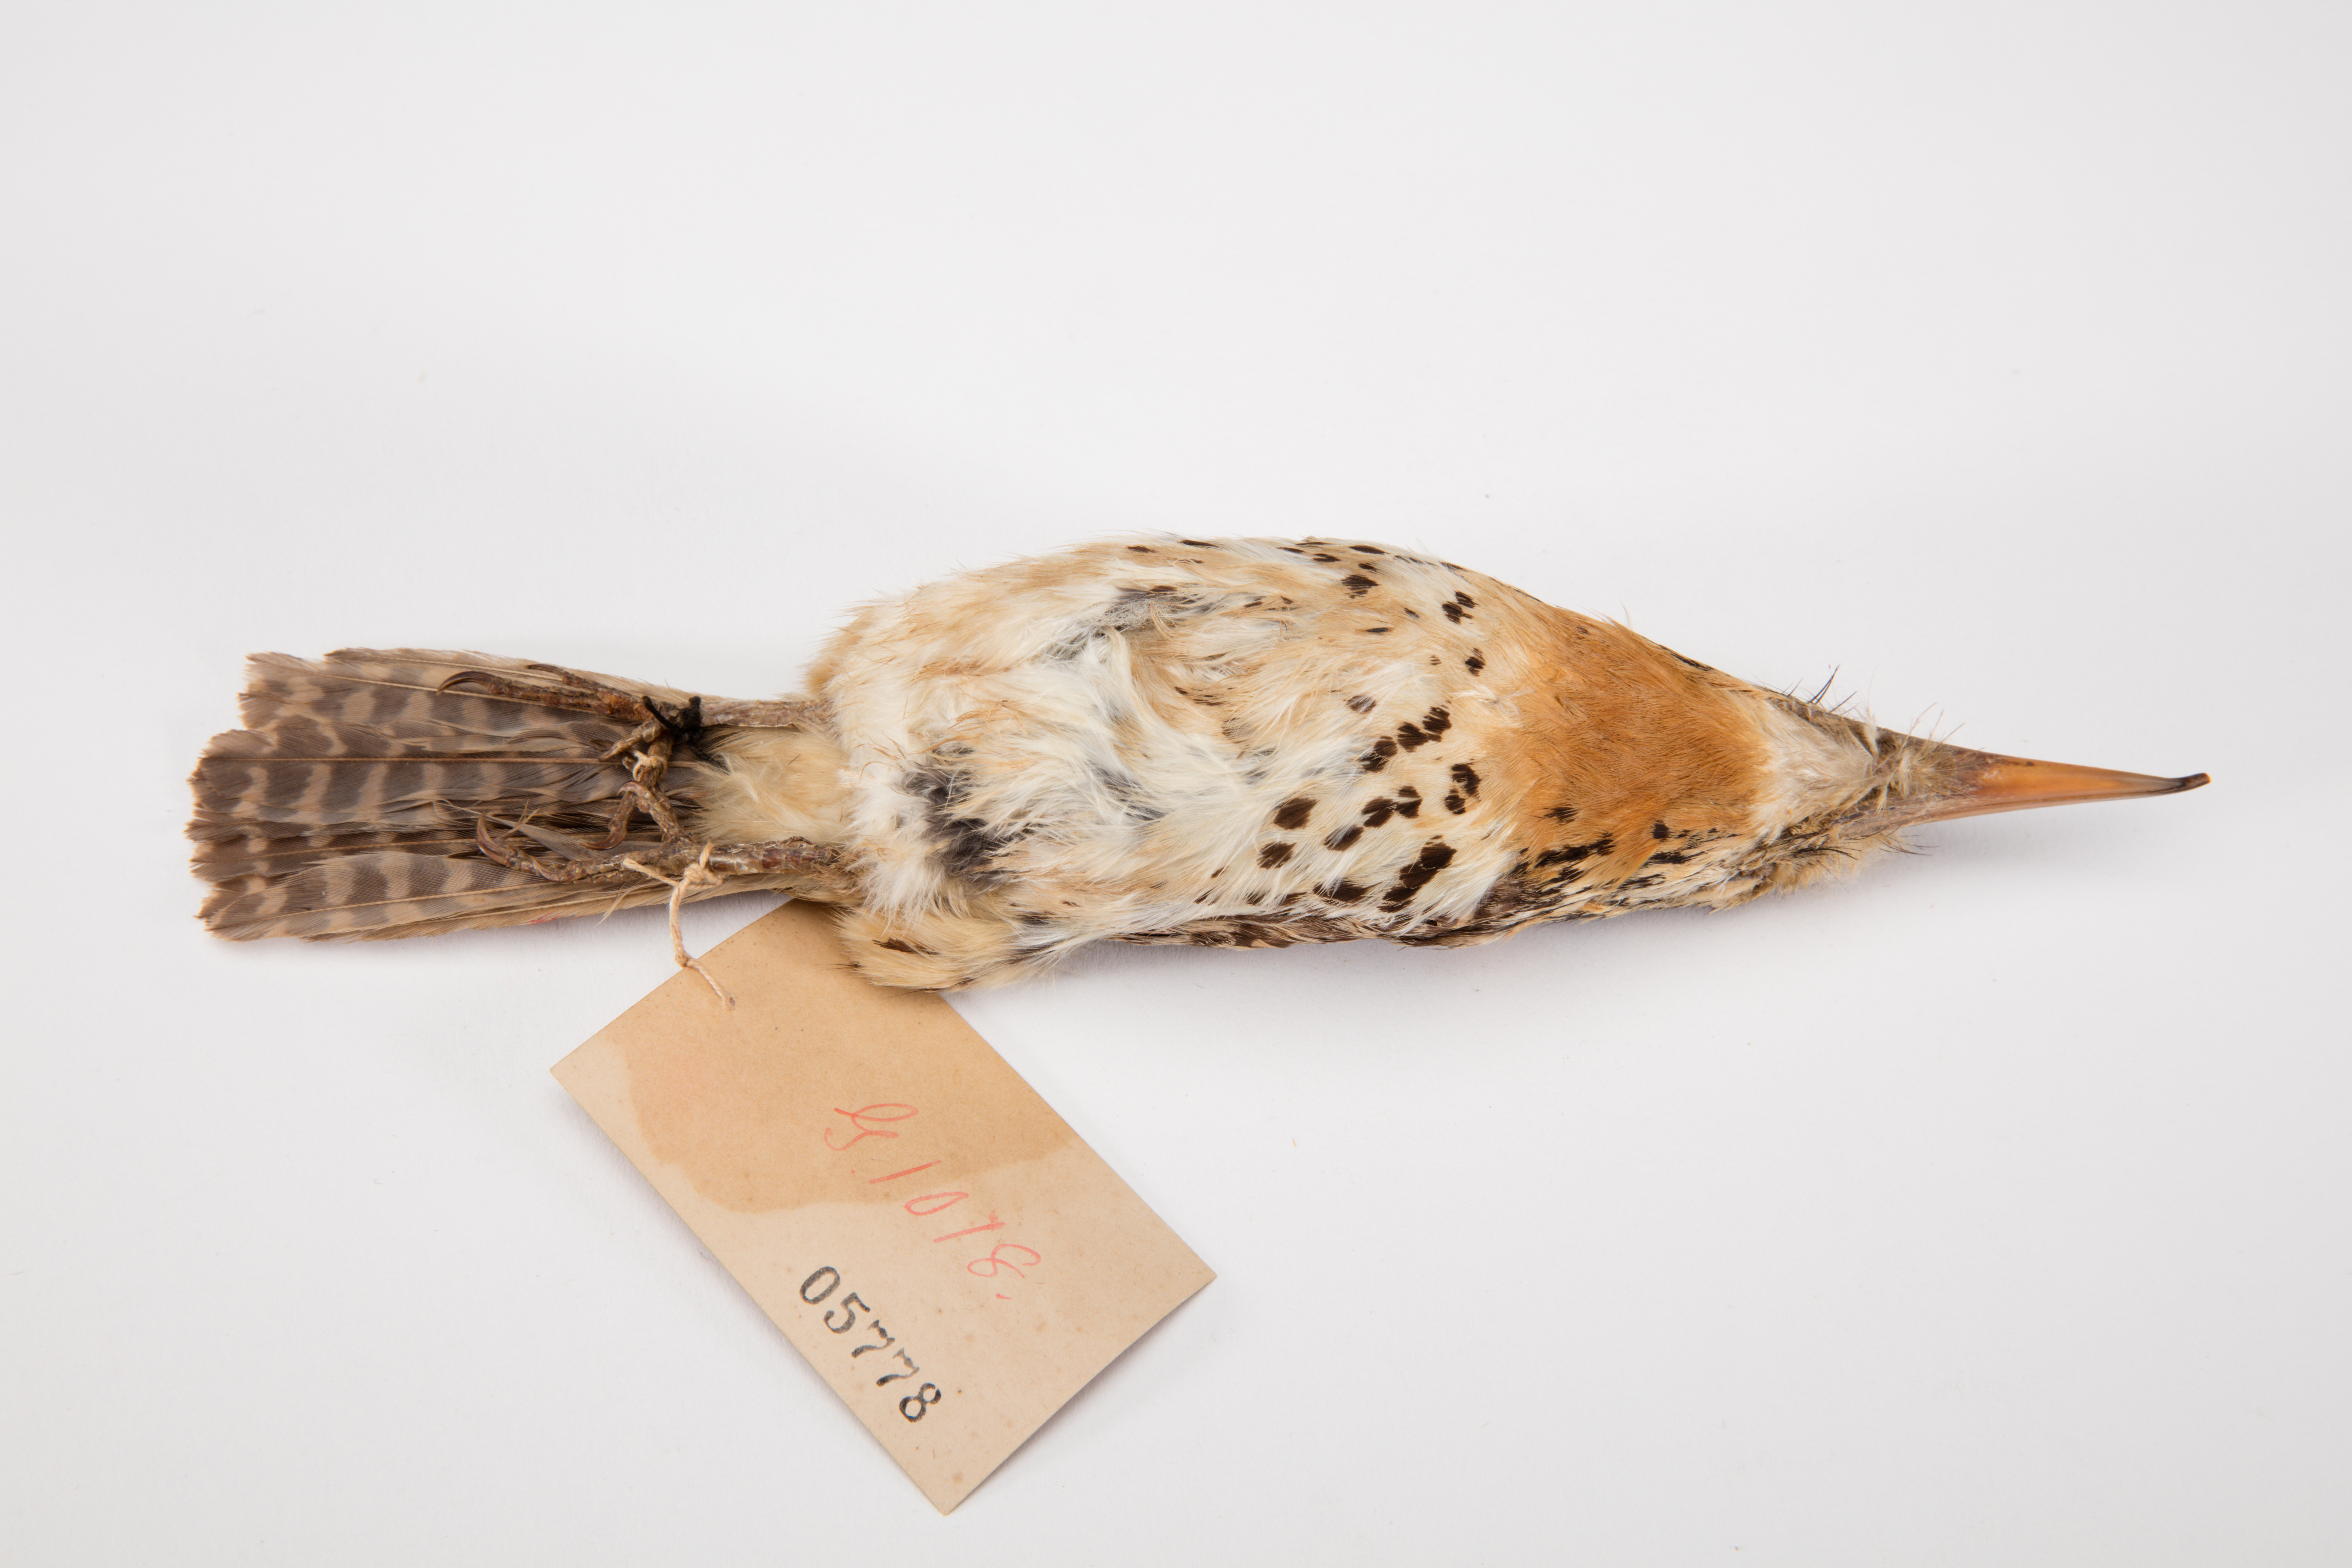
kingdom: Animalia
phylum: Chordata
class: Aves
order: Piciformes
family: Bucconidae
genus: Bucco
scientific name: Bucco macrodactylus
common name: Chestnut-capped puffbird
